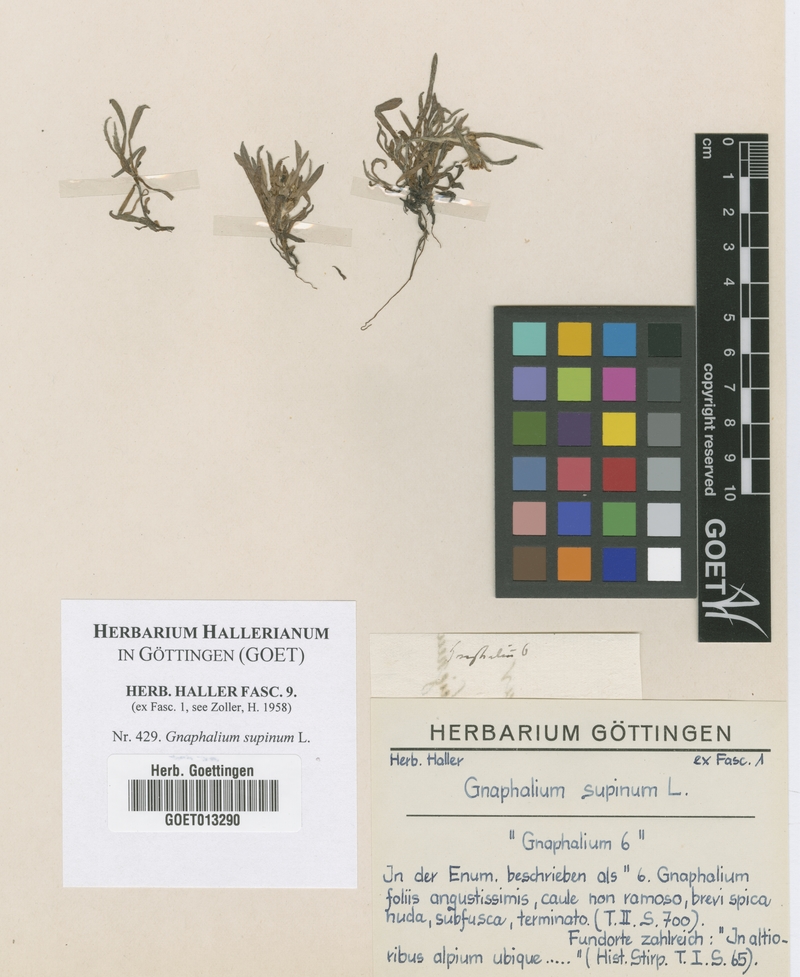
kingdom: Plantae
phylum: Tracheophyta
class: Magnoliopsida
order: Asterales
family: Asteraceae
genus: Omalotheca
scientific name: Omalotheca supina
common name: Alpine arctic-cudweed
